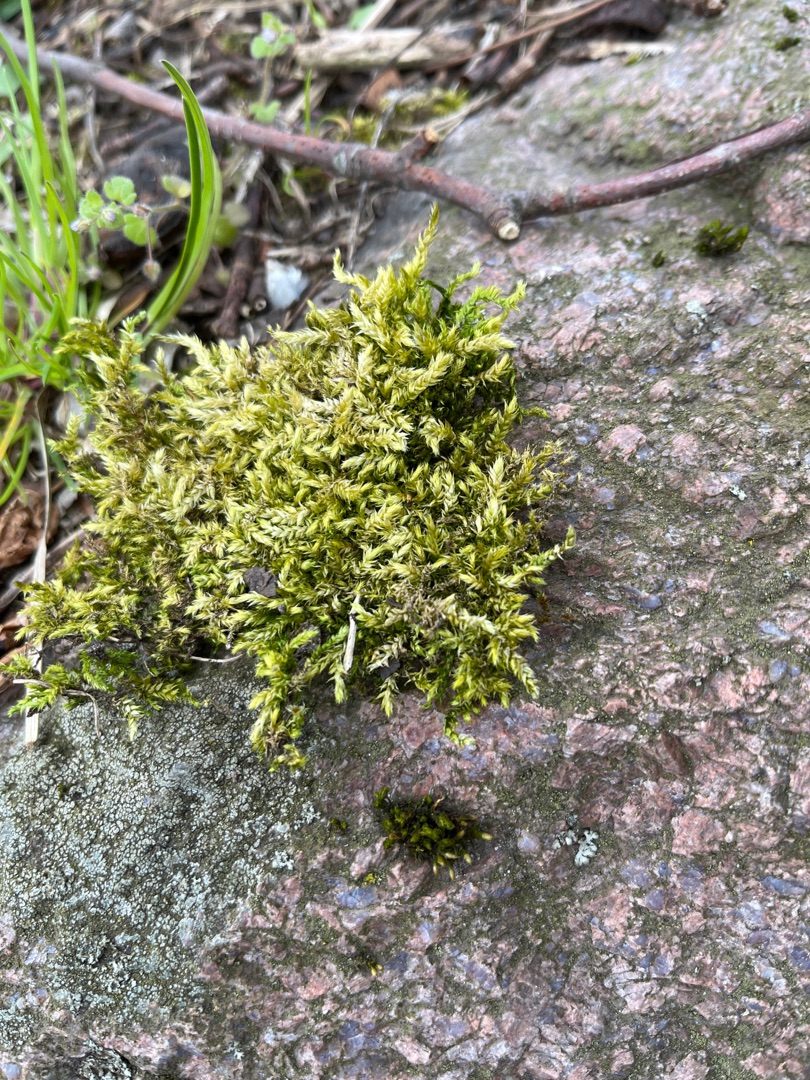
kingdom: Plantae
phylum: Bryophyta
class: Bryopsida
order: Hypnales
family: Brachytheciaceae
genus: Brachythecium
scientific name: Brachythecium rutabulum
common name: Almindelig kortkapsel
